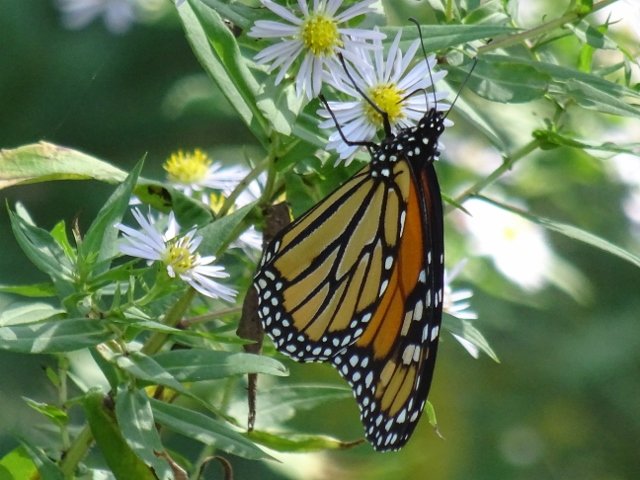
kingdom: Animalia
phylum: Arthropoda
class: Insecta
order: Lepidoptera
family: Nymphalidae
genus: Danaus
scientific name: Danaus plexippus
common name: Monarch
